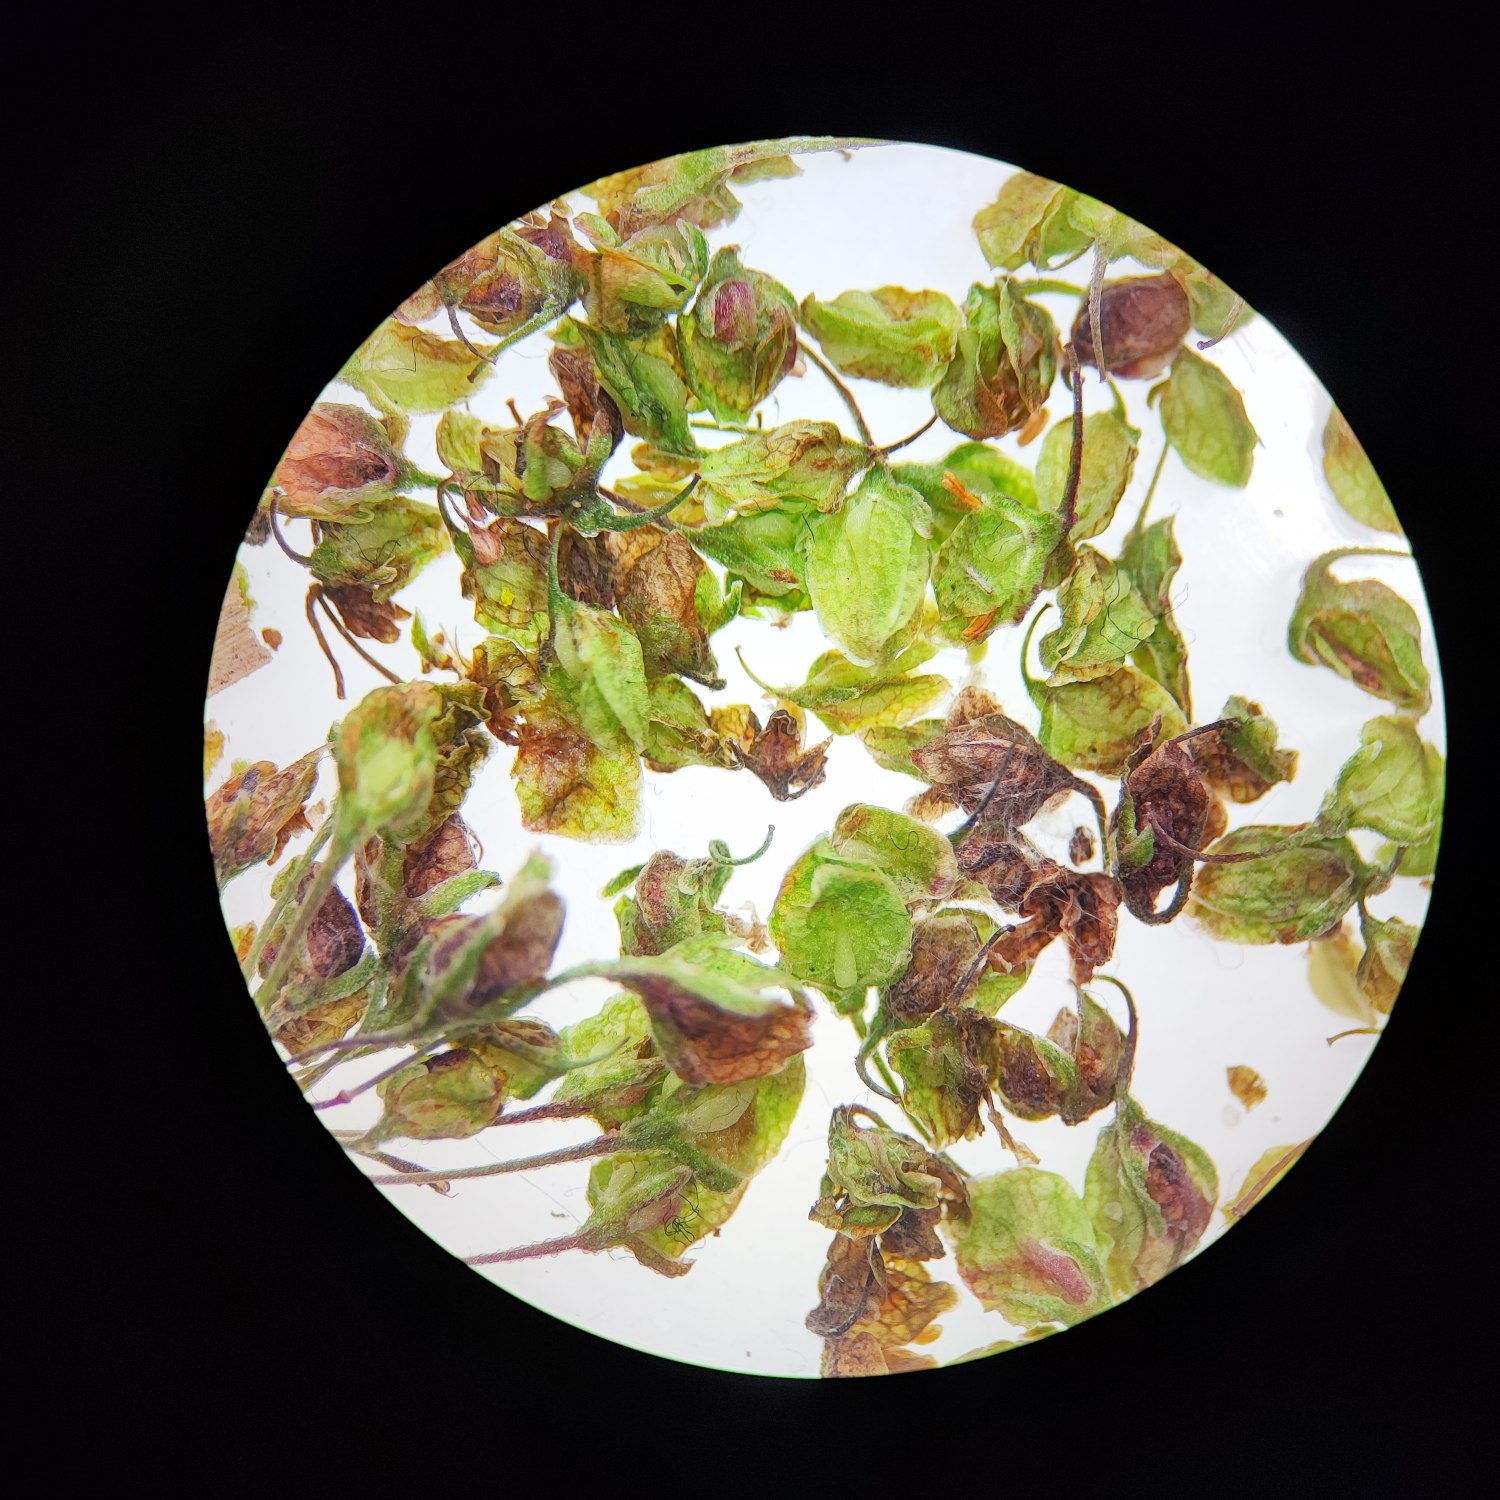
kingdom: Plantae
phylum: Tracheophyta
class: Magnoliopsida
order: Caryophyllales
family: Polygonaceae
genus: Rumex
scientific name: Rumex crispus
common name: Kruset skræppe
